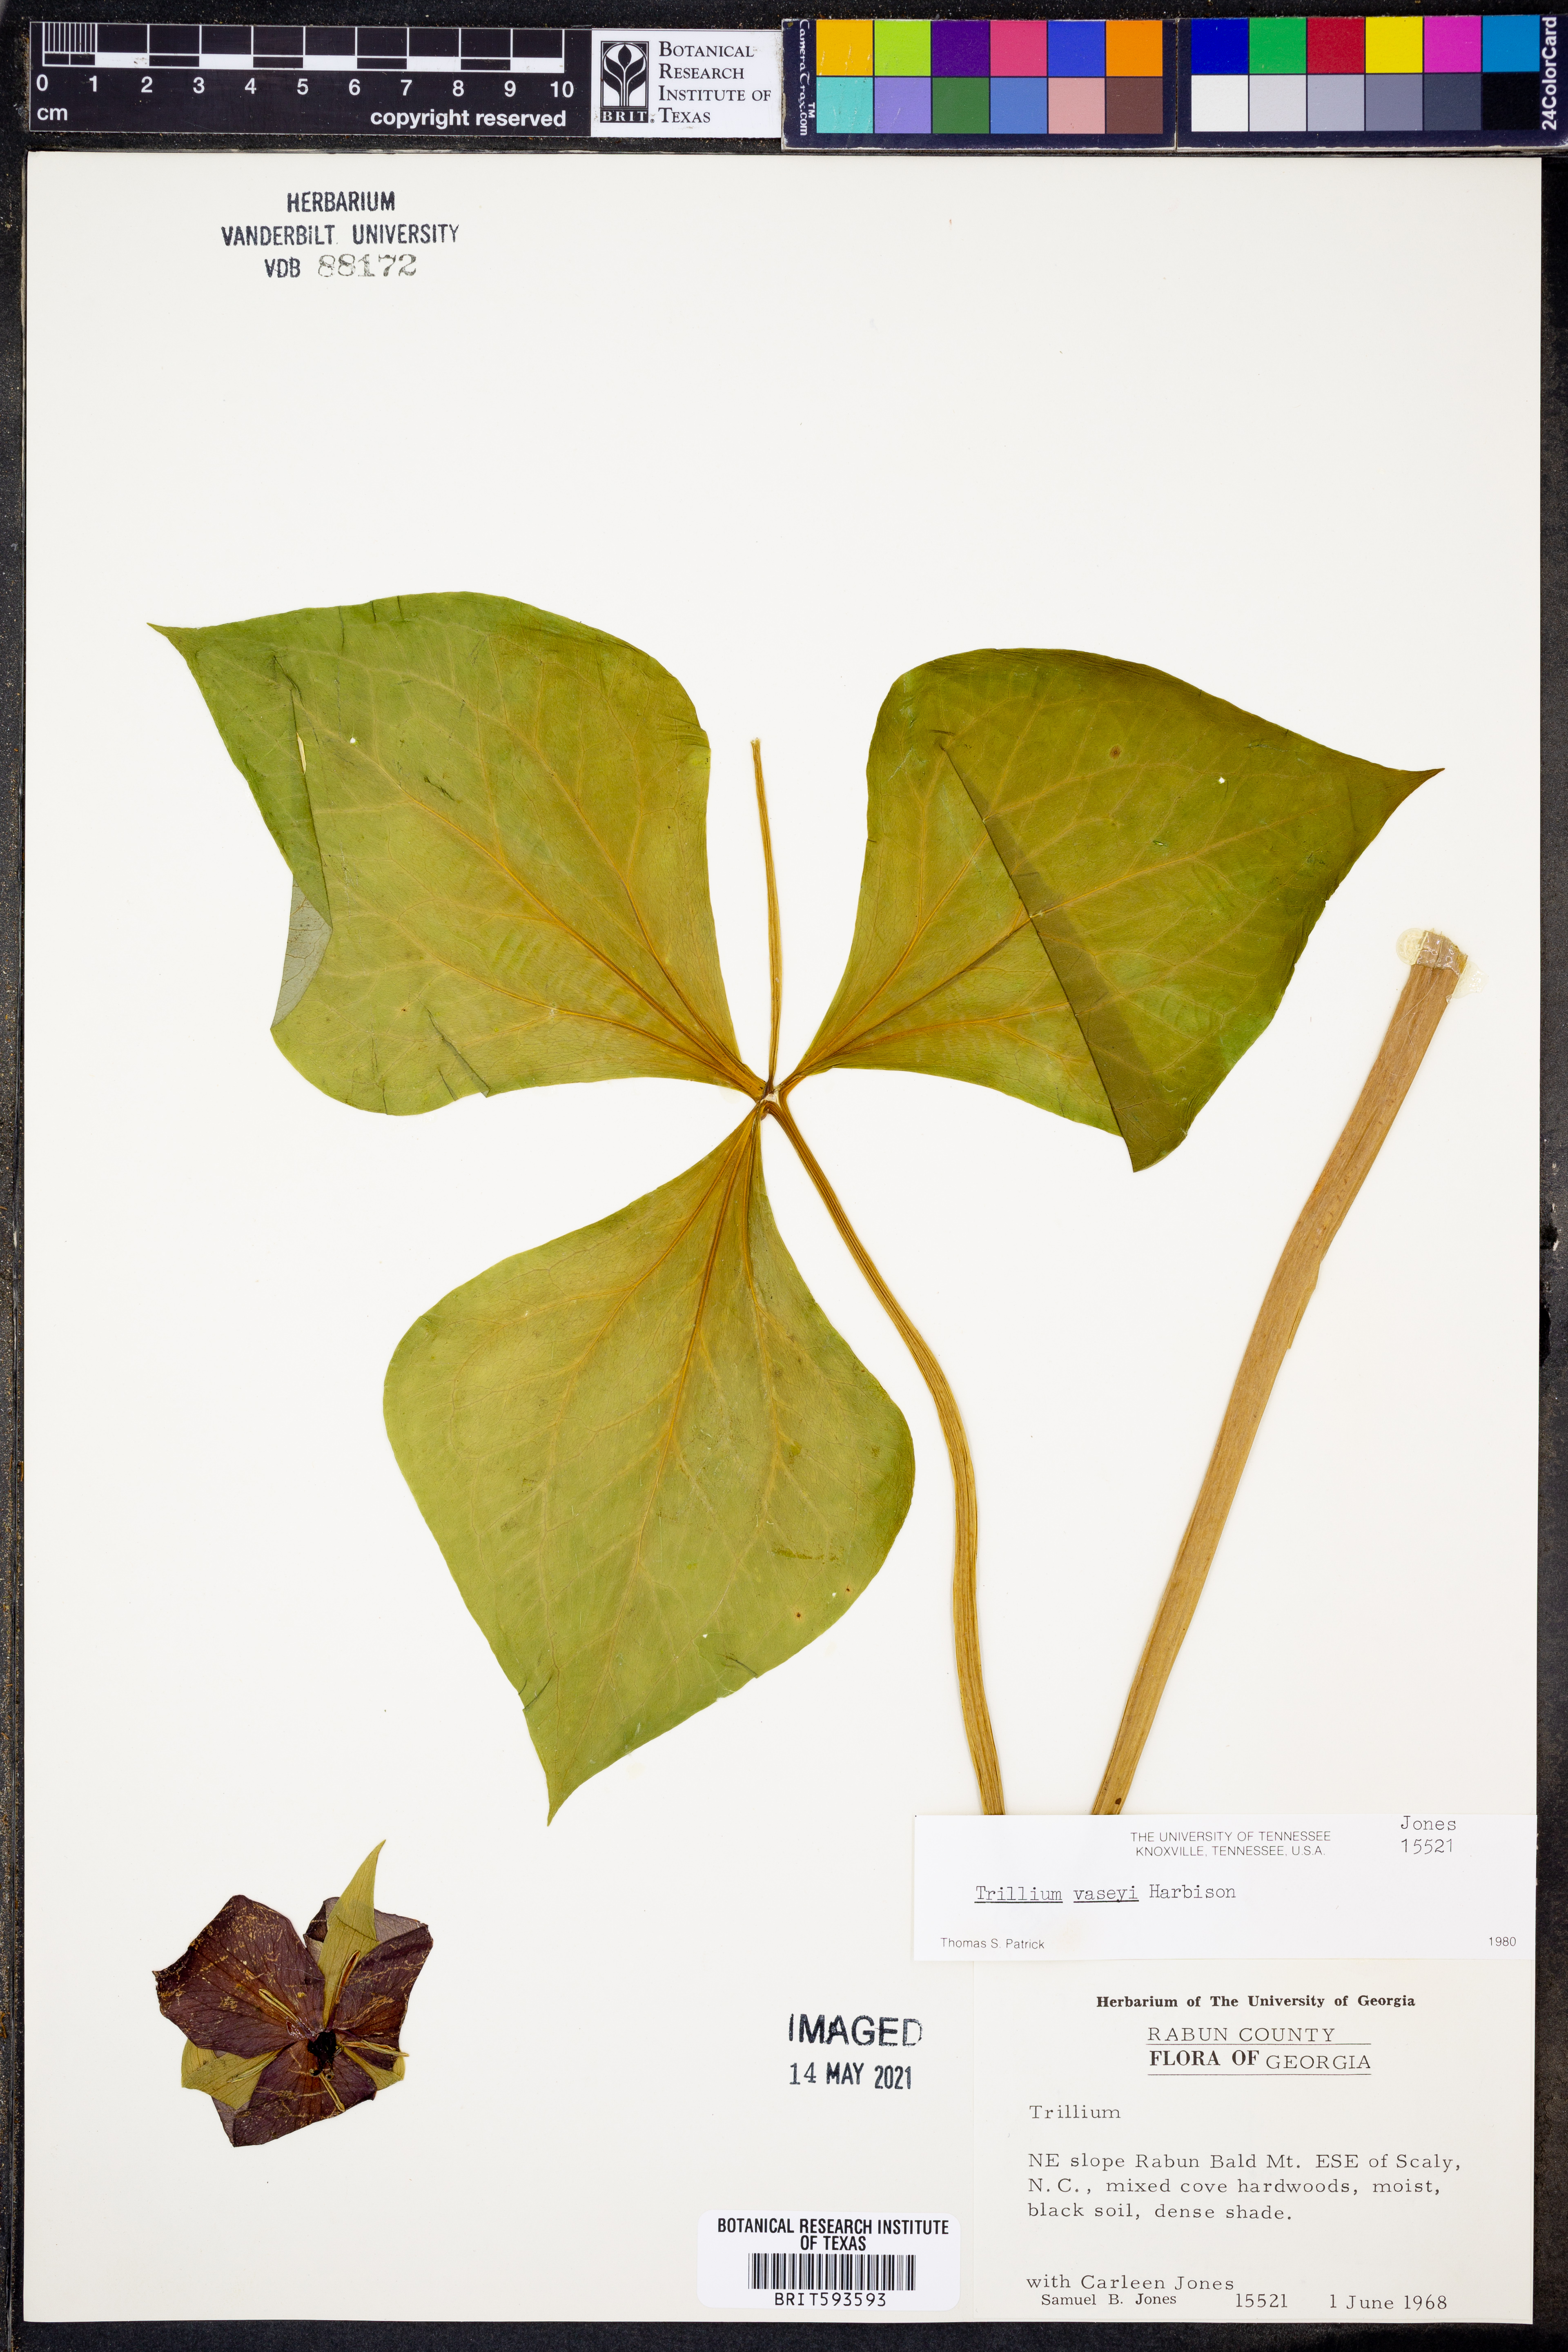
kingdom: Plantae
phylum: Tracheophyta
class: Liliopsida
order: Liliales
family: Melanthiaceae
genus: Trillium
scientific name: Trillium vaseyi
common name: Sweet trillium
